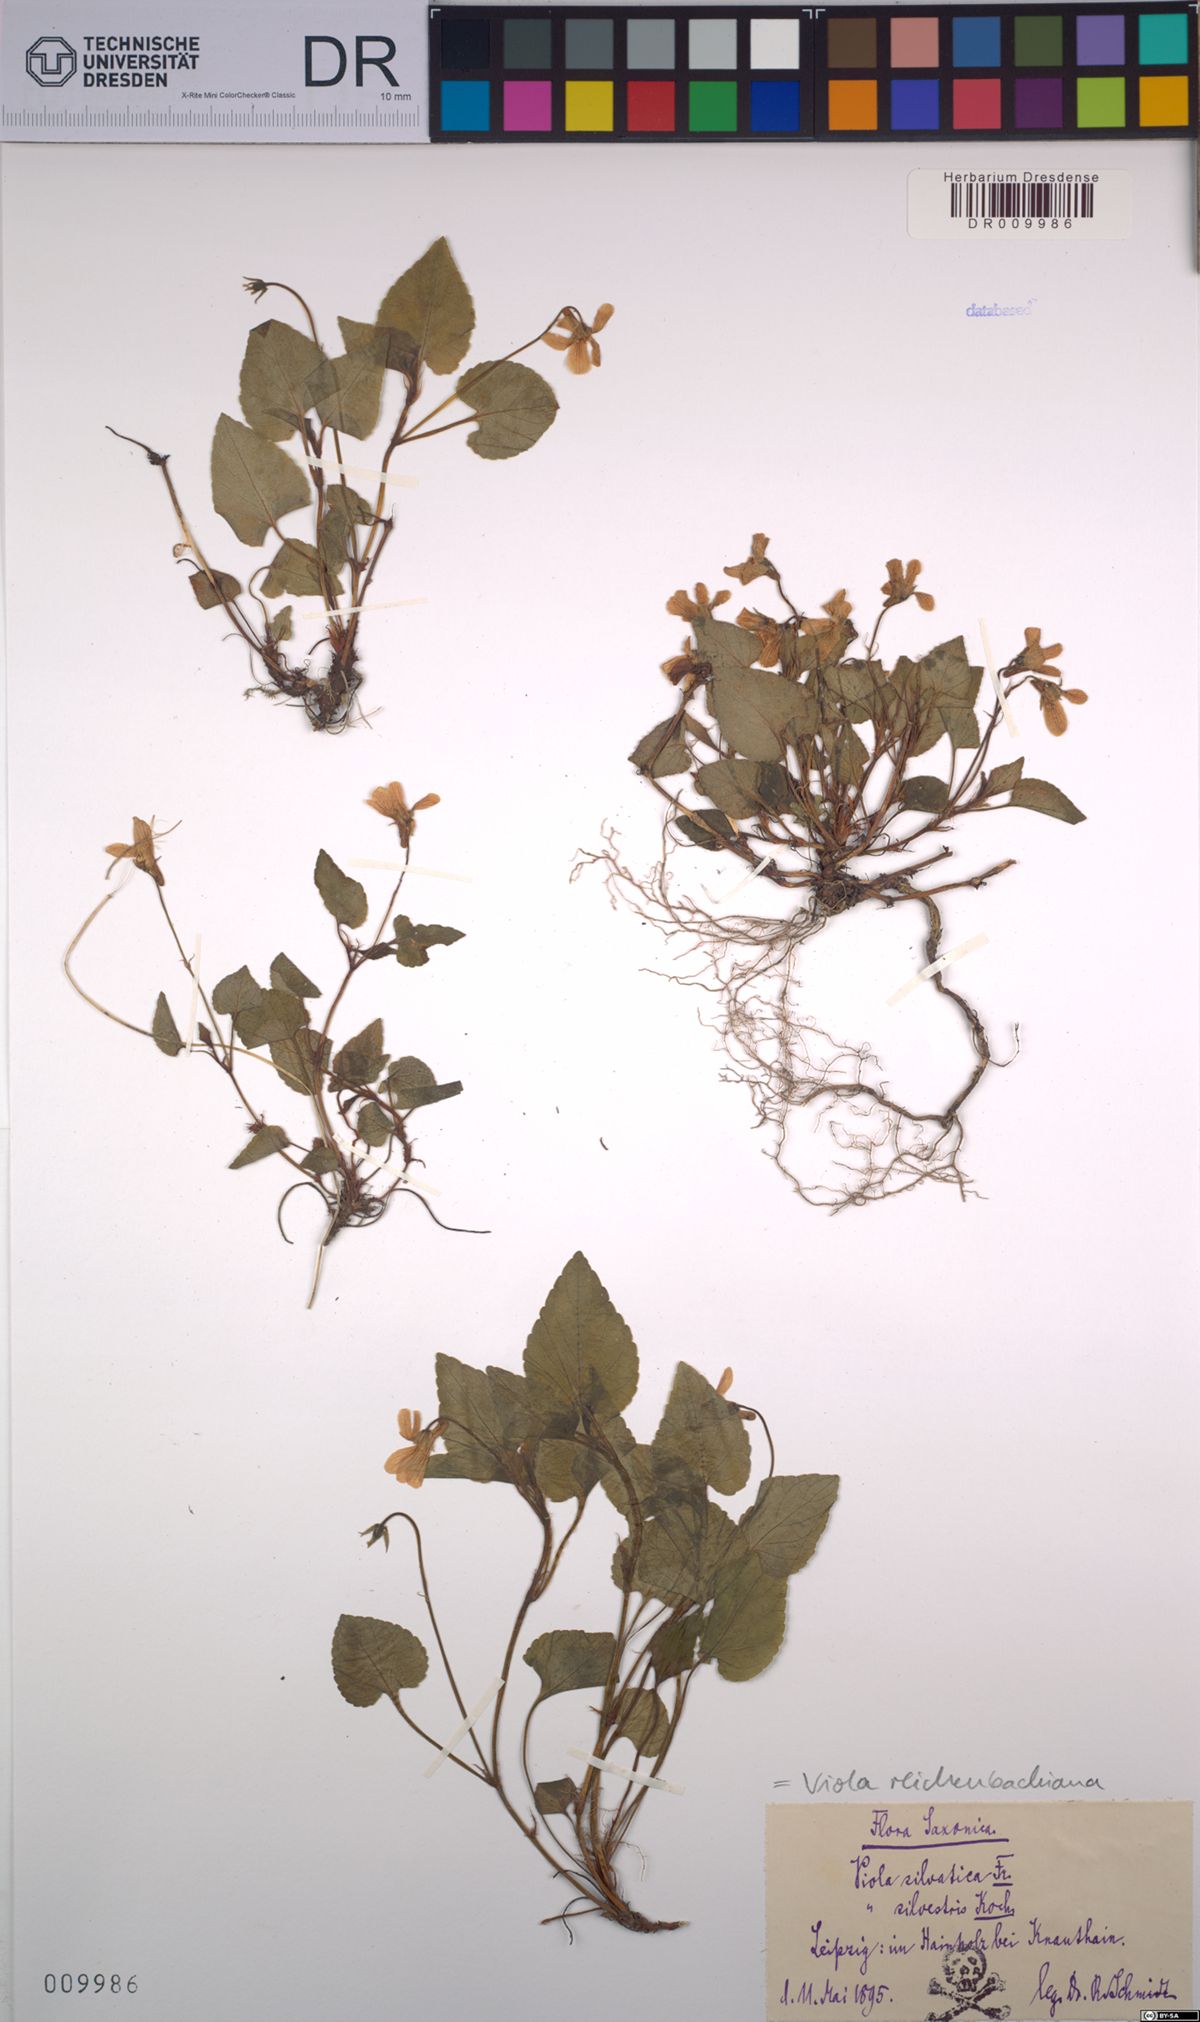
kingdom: Plantae
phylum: Tracheophyta
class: Magnoliopsida
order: Malpighiales
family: Violaceae
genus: Viola
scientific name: Viola reichenbachiana
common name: Early dog-violet
